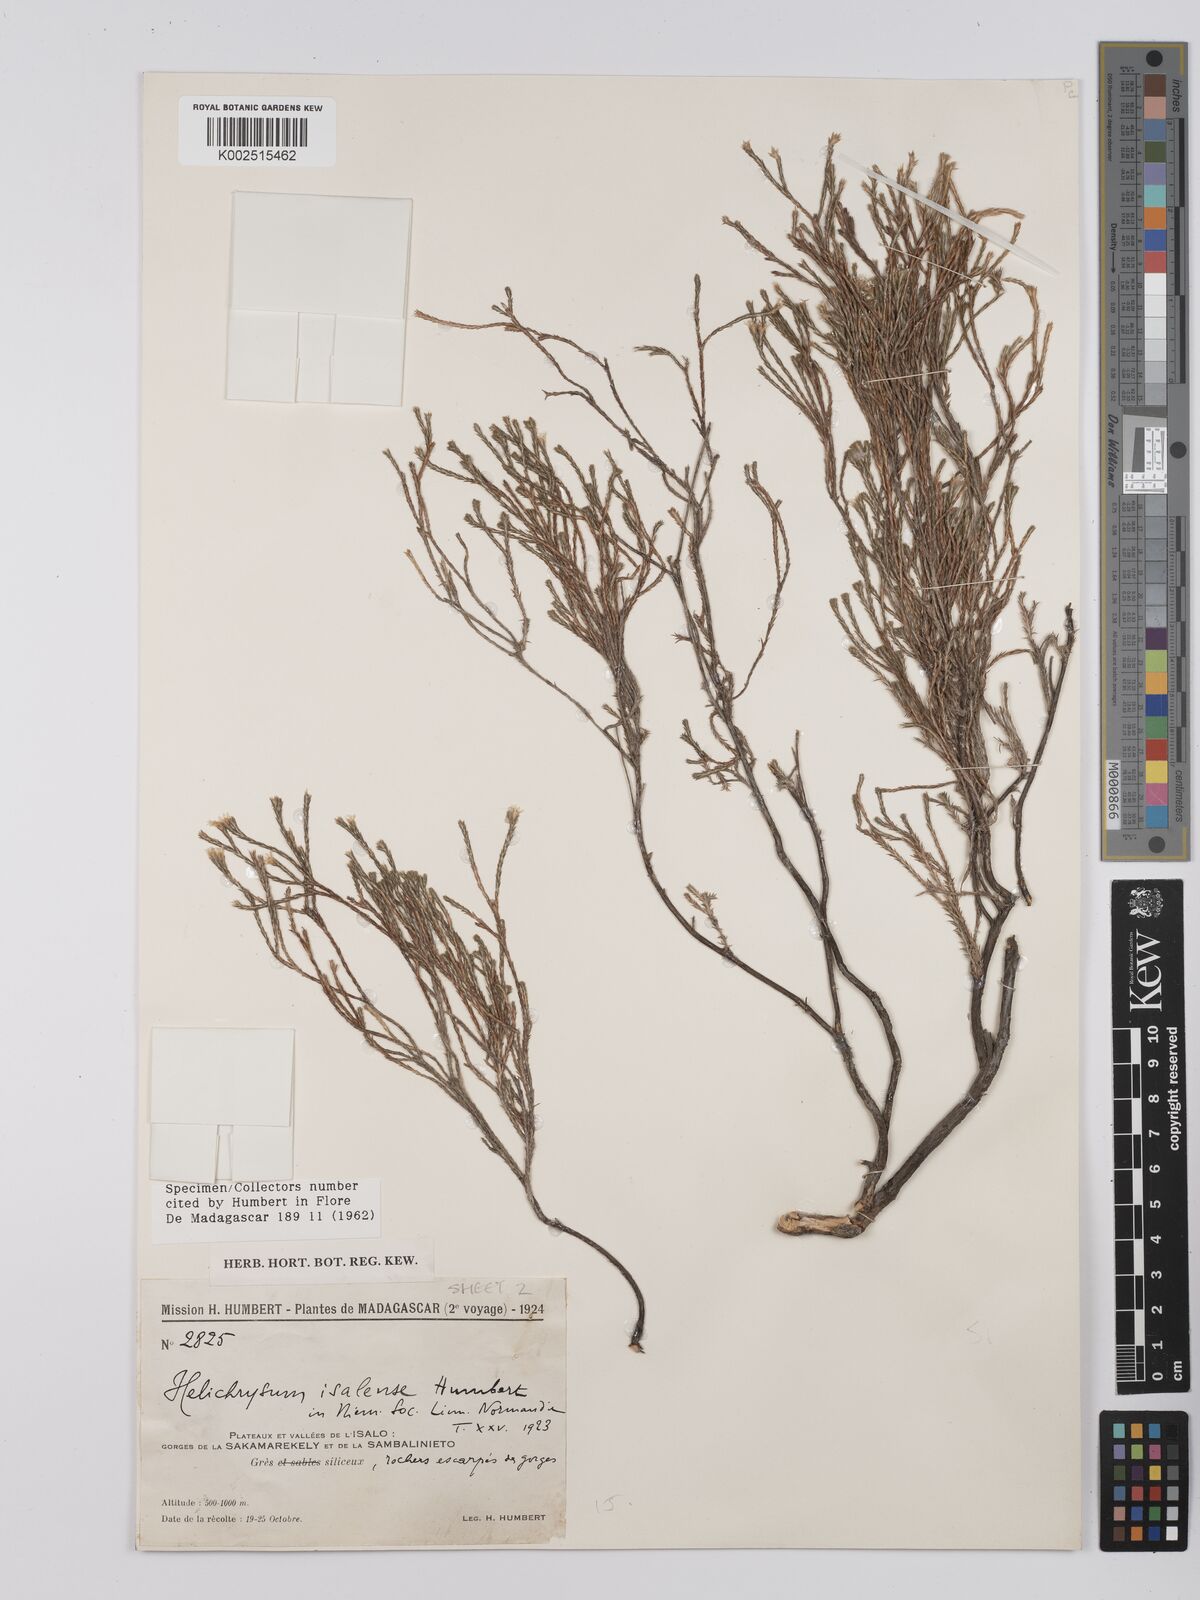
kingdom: Plantae
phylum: Tracheophyta
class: Magnoliopsida
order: Asterales
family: Asteraceae
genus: Helichrysum
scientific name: Helichrysum isalense
